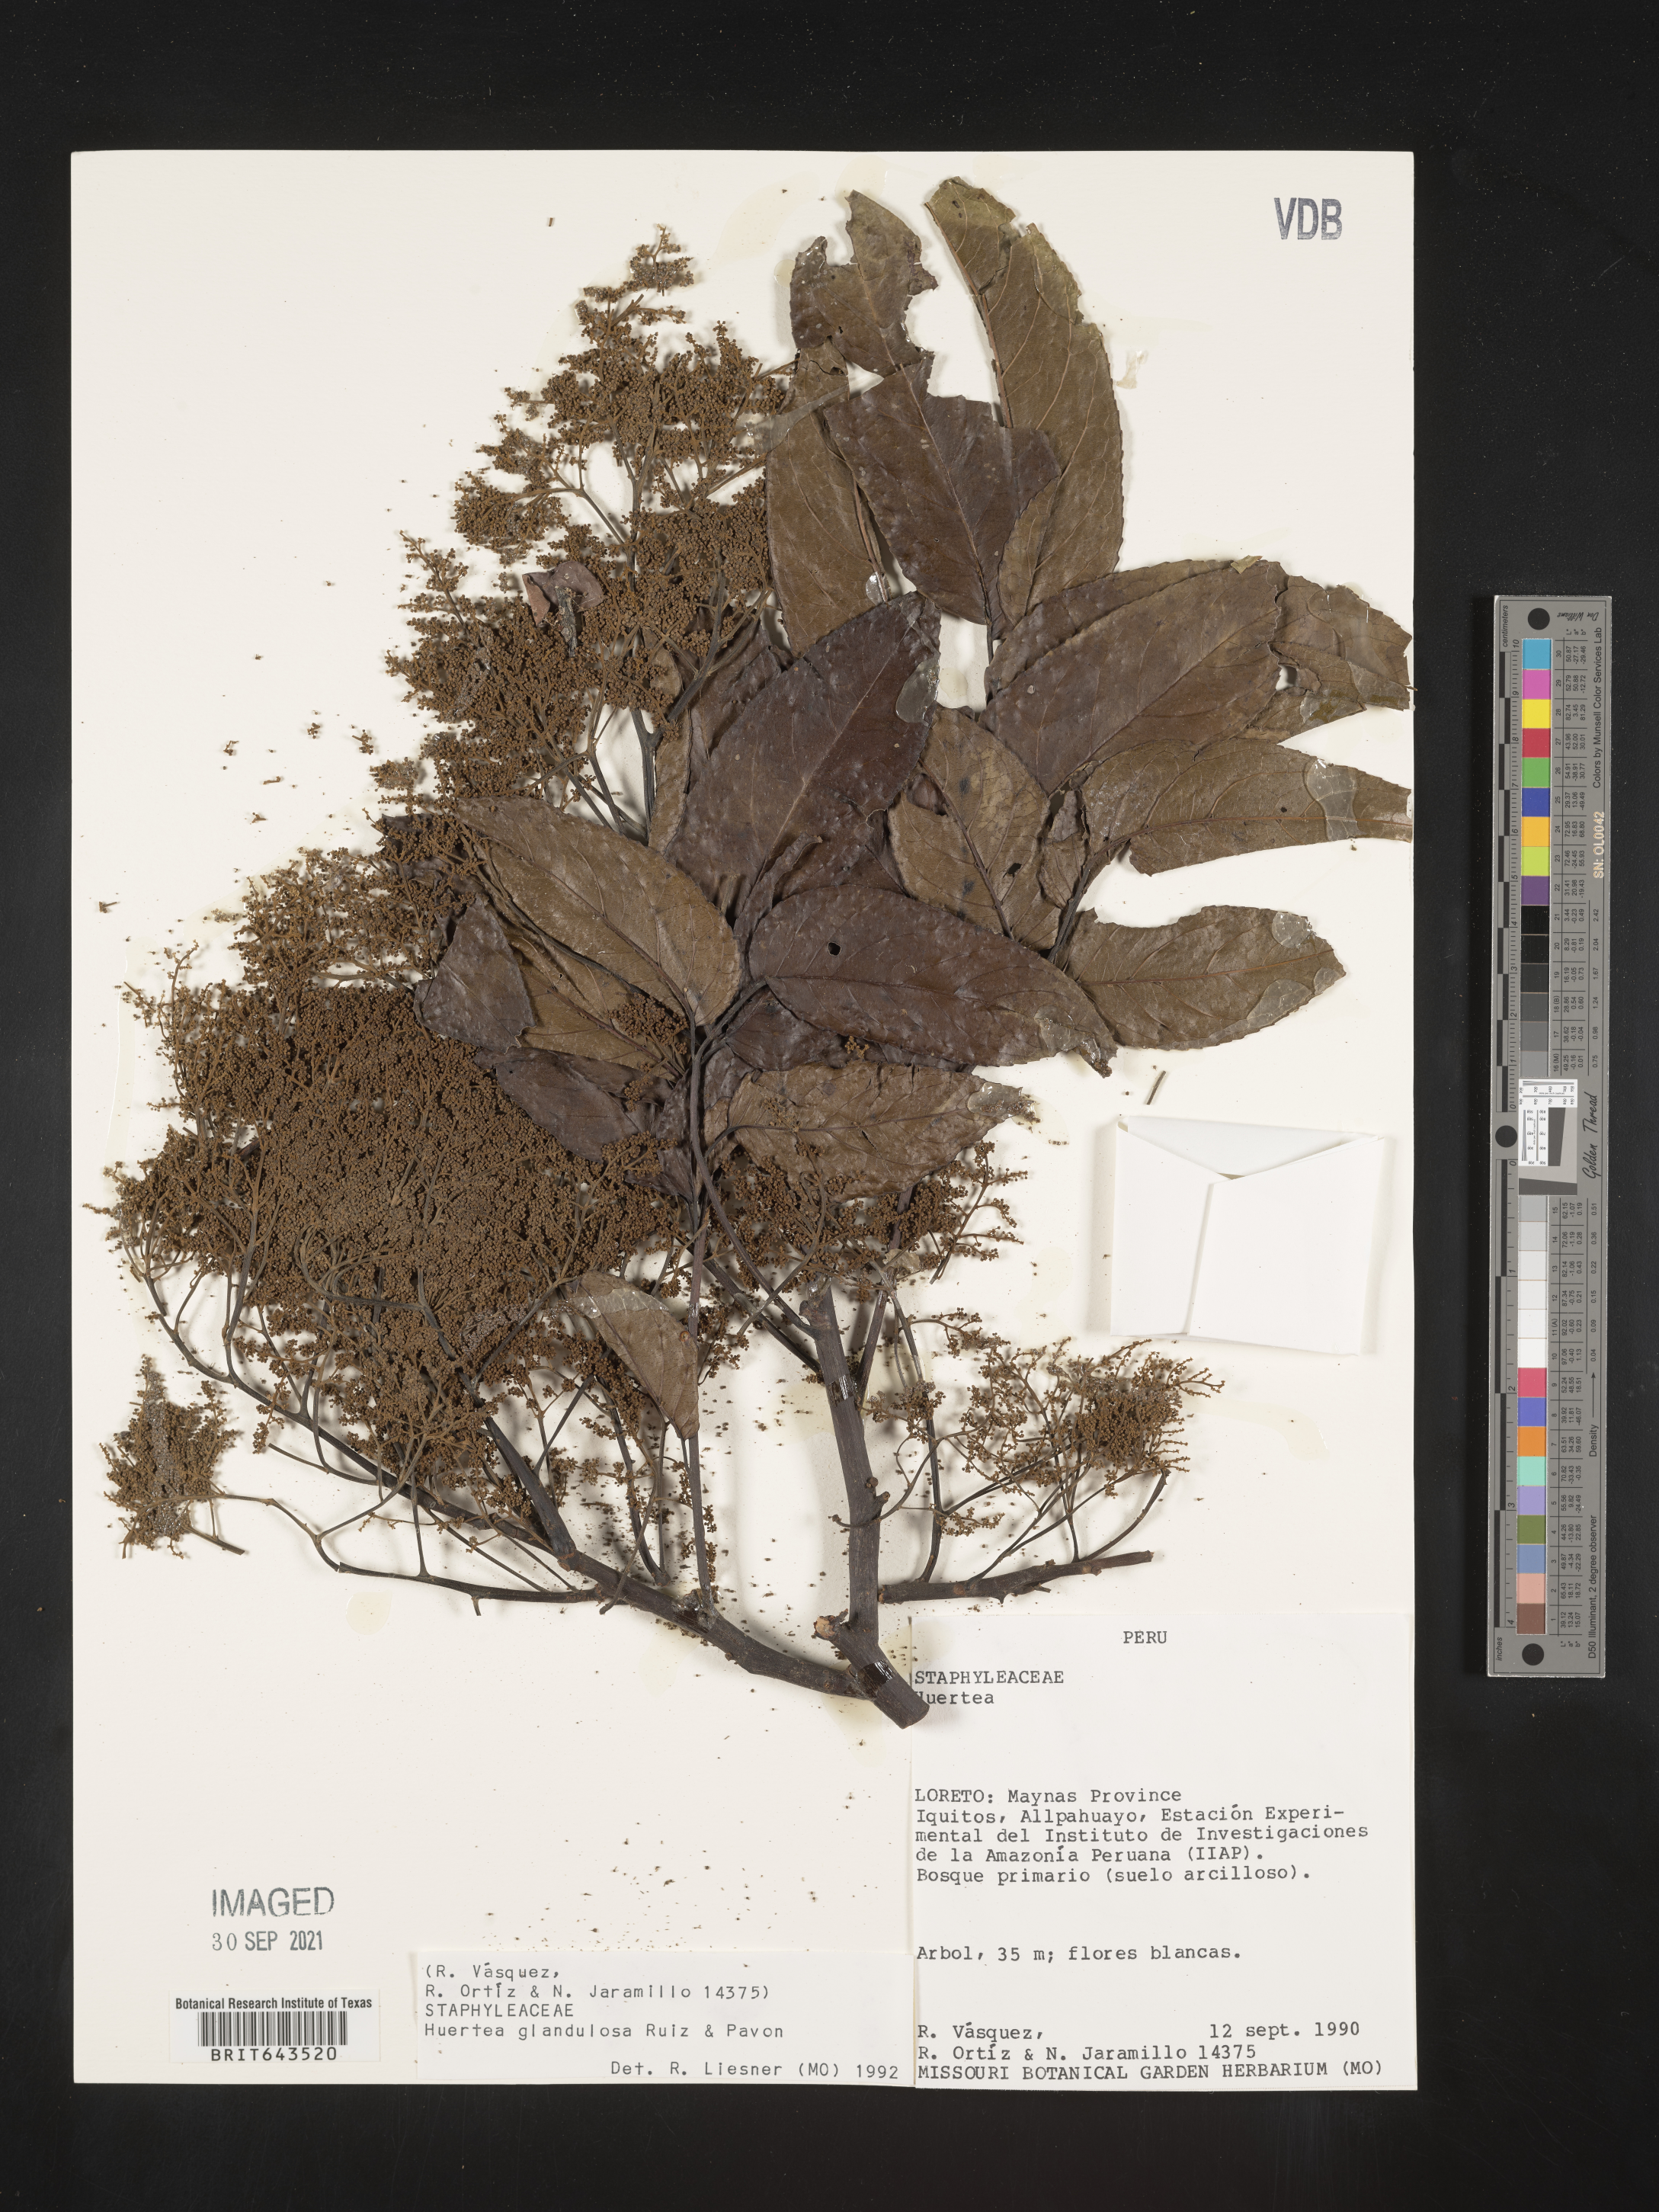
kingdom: Plantae
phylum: Tracheophyta
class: Magnoliopsida
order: Huerteales
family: Tapisciaceae
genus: Huertea
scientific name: Huertea
